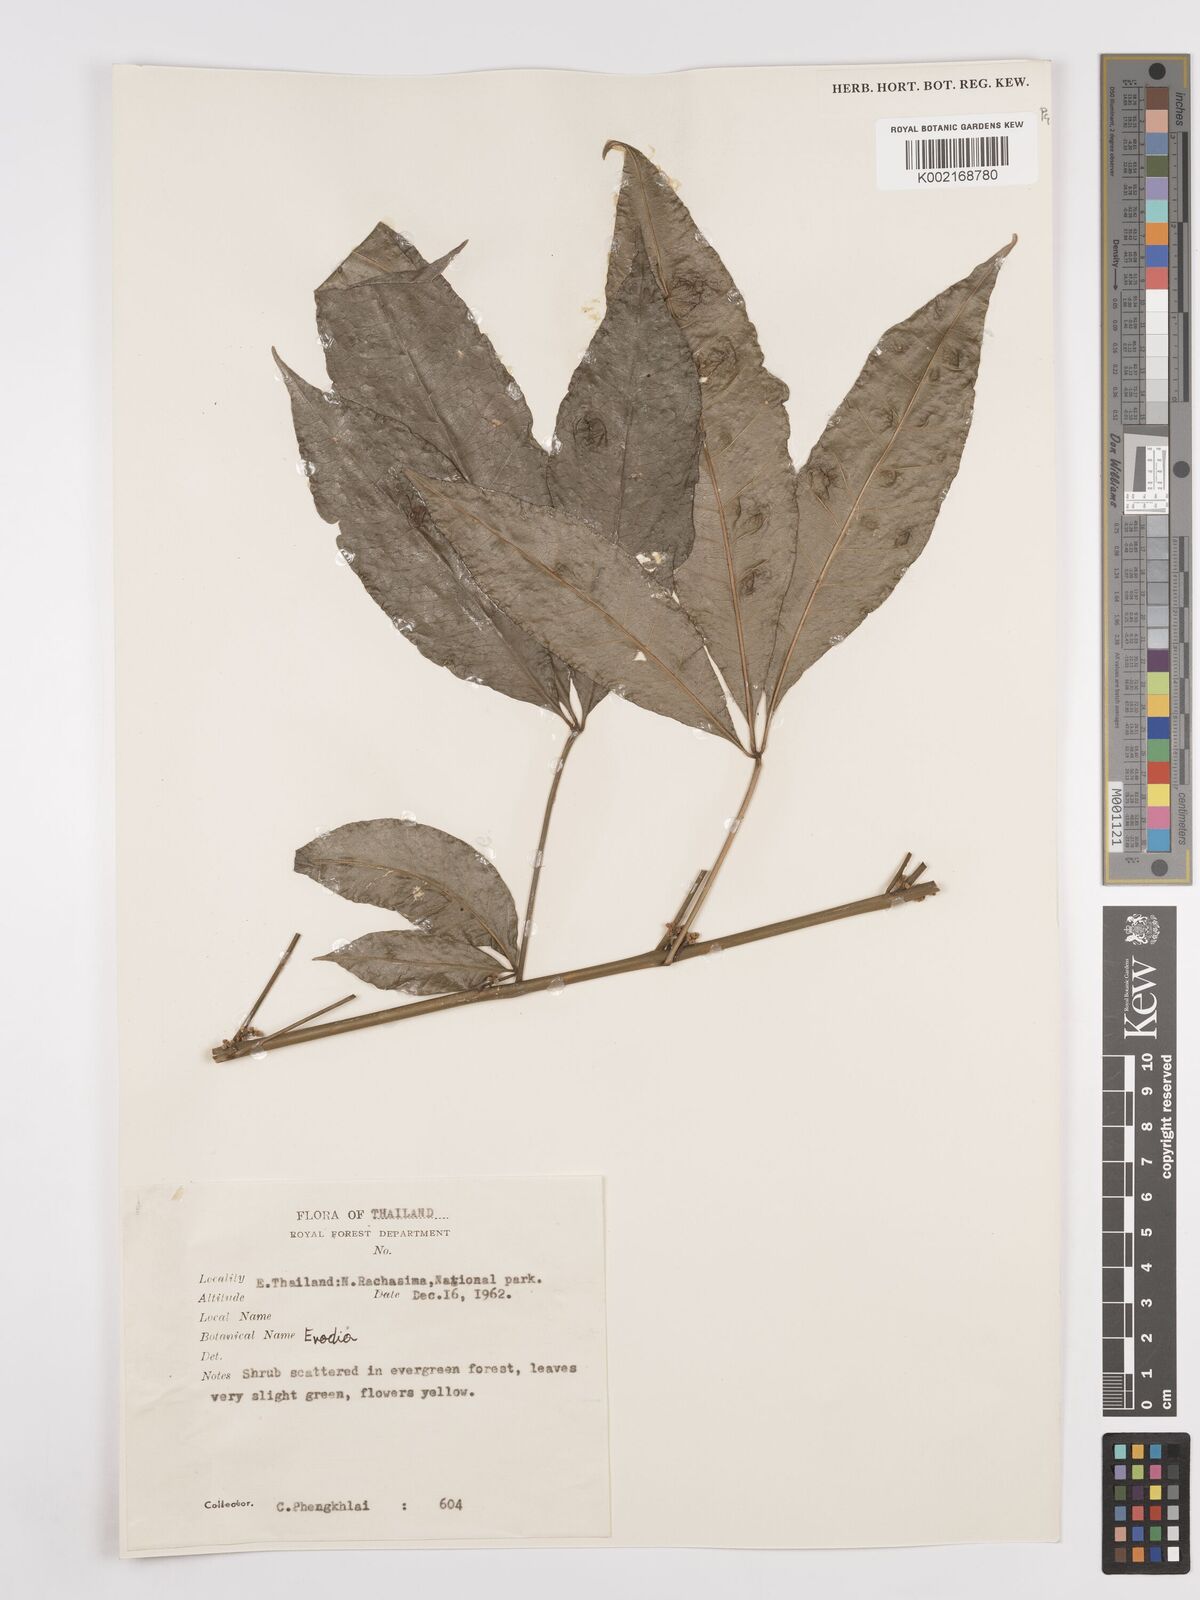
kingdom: Plantae
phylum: Tracheophyta
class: Magnoliopsida
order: Sapindales
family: Rutaceae
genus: Euodia
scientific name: Euodia
